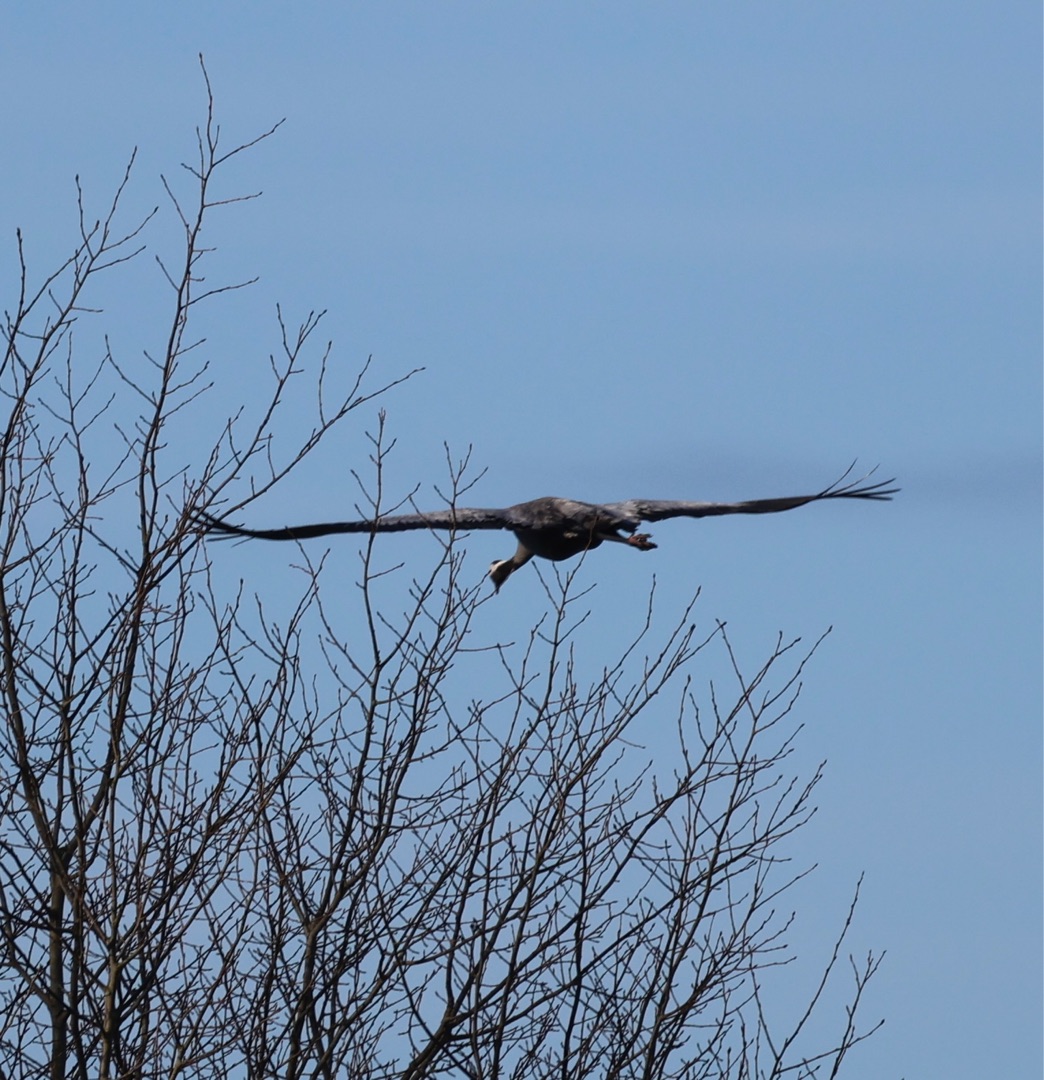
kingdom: Animalia
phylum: Chordata
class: Aves
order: Gruiformes
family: Gruidae
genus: Grus
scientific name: Grus grus
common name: Trane
